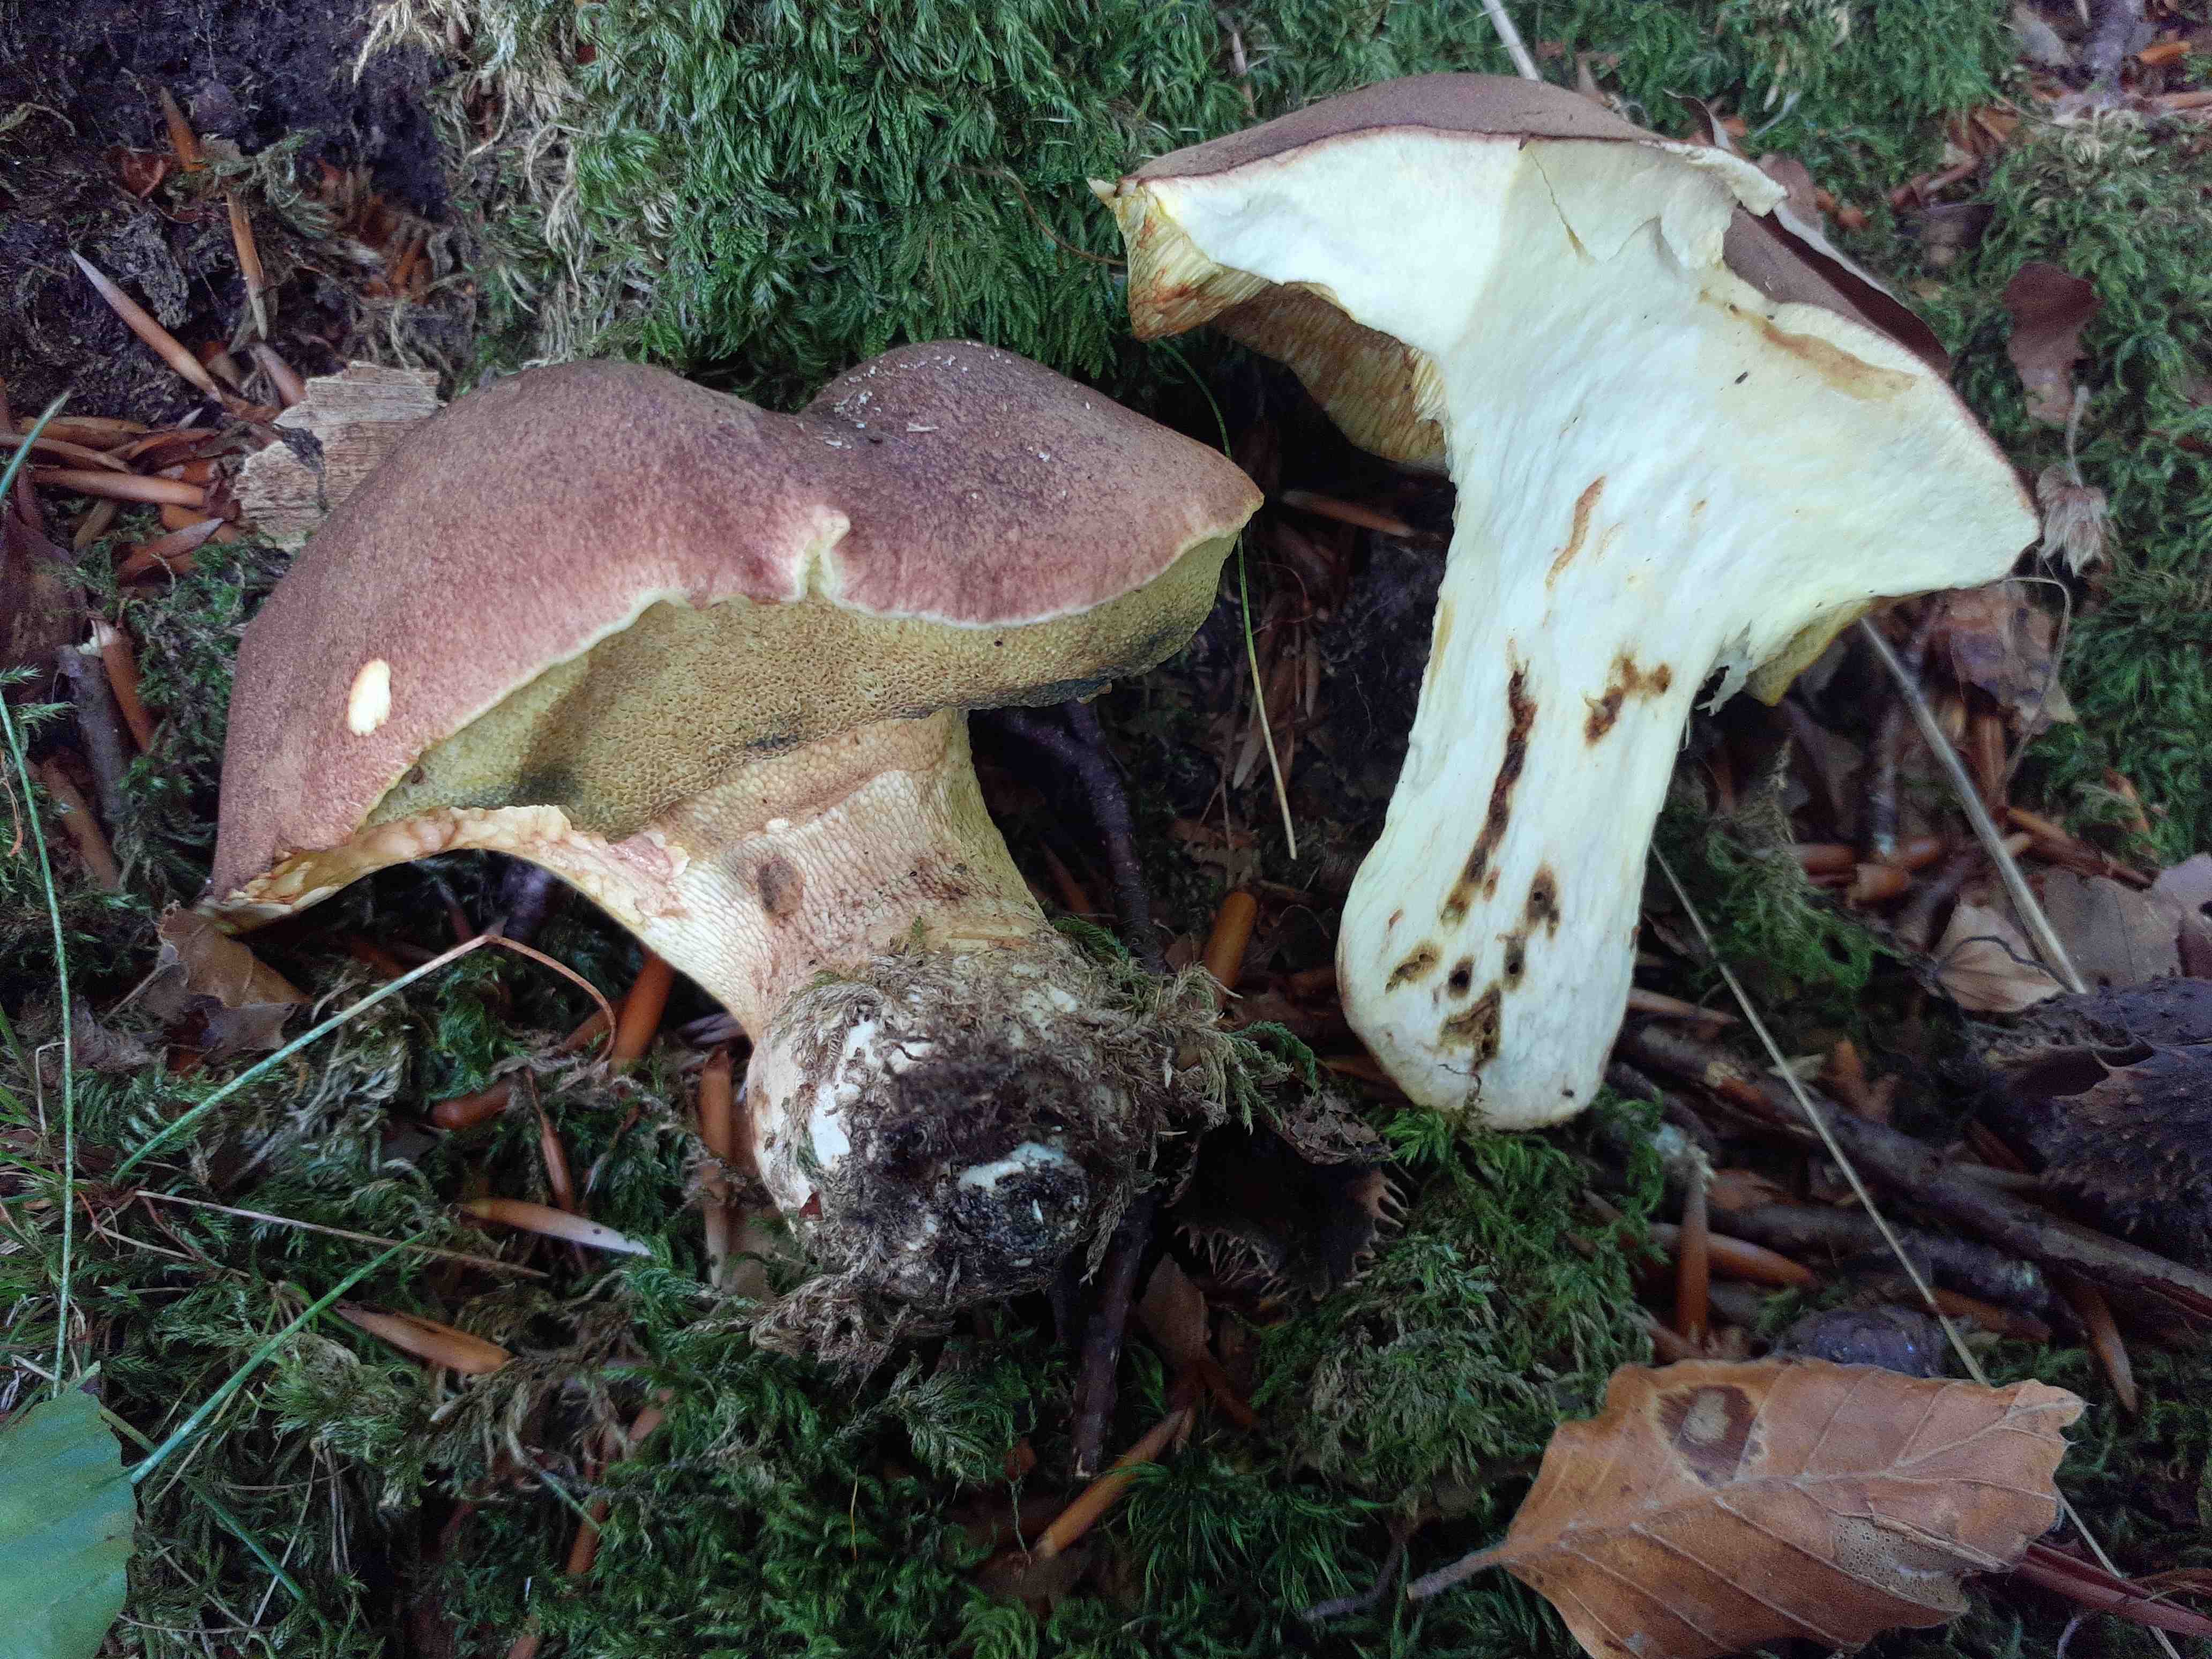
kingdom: Fungi
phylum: Basidiomycota
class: Agaricomycetes
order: Boletales
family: Boletaceae
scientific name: Boletaceae
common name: rørhatfamilien
